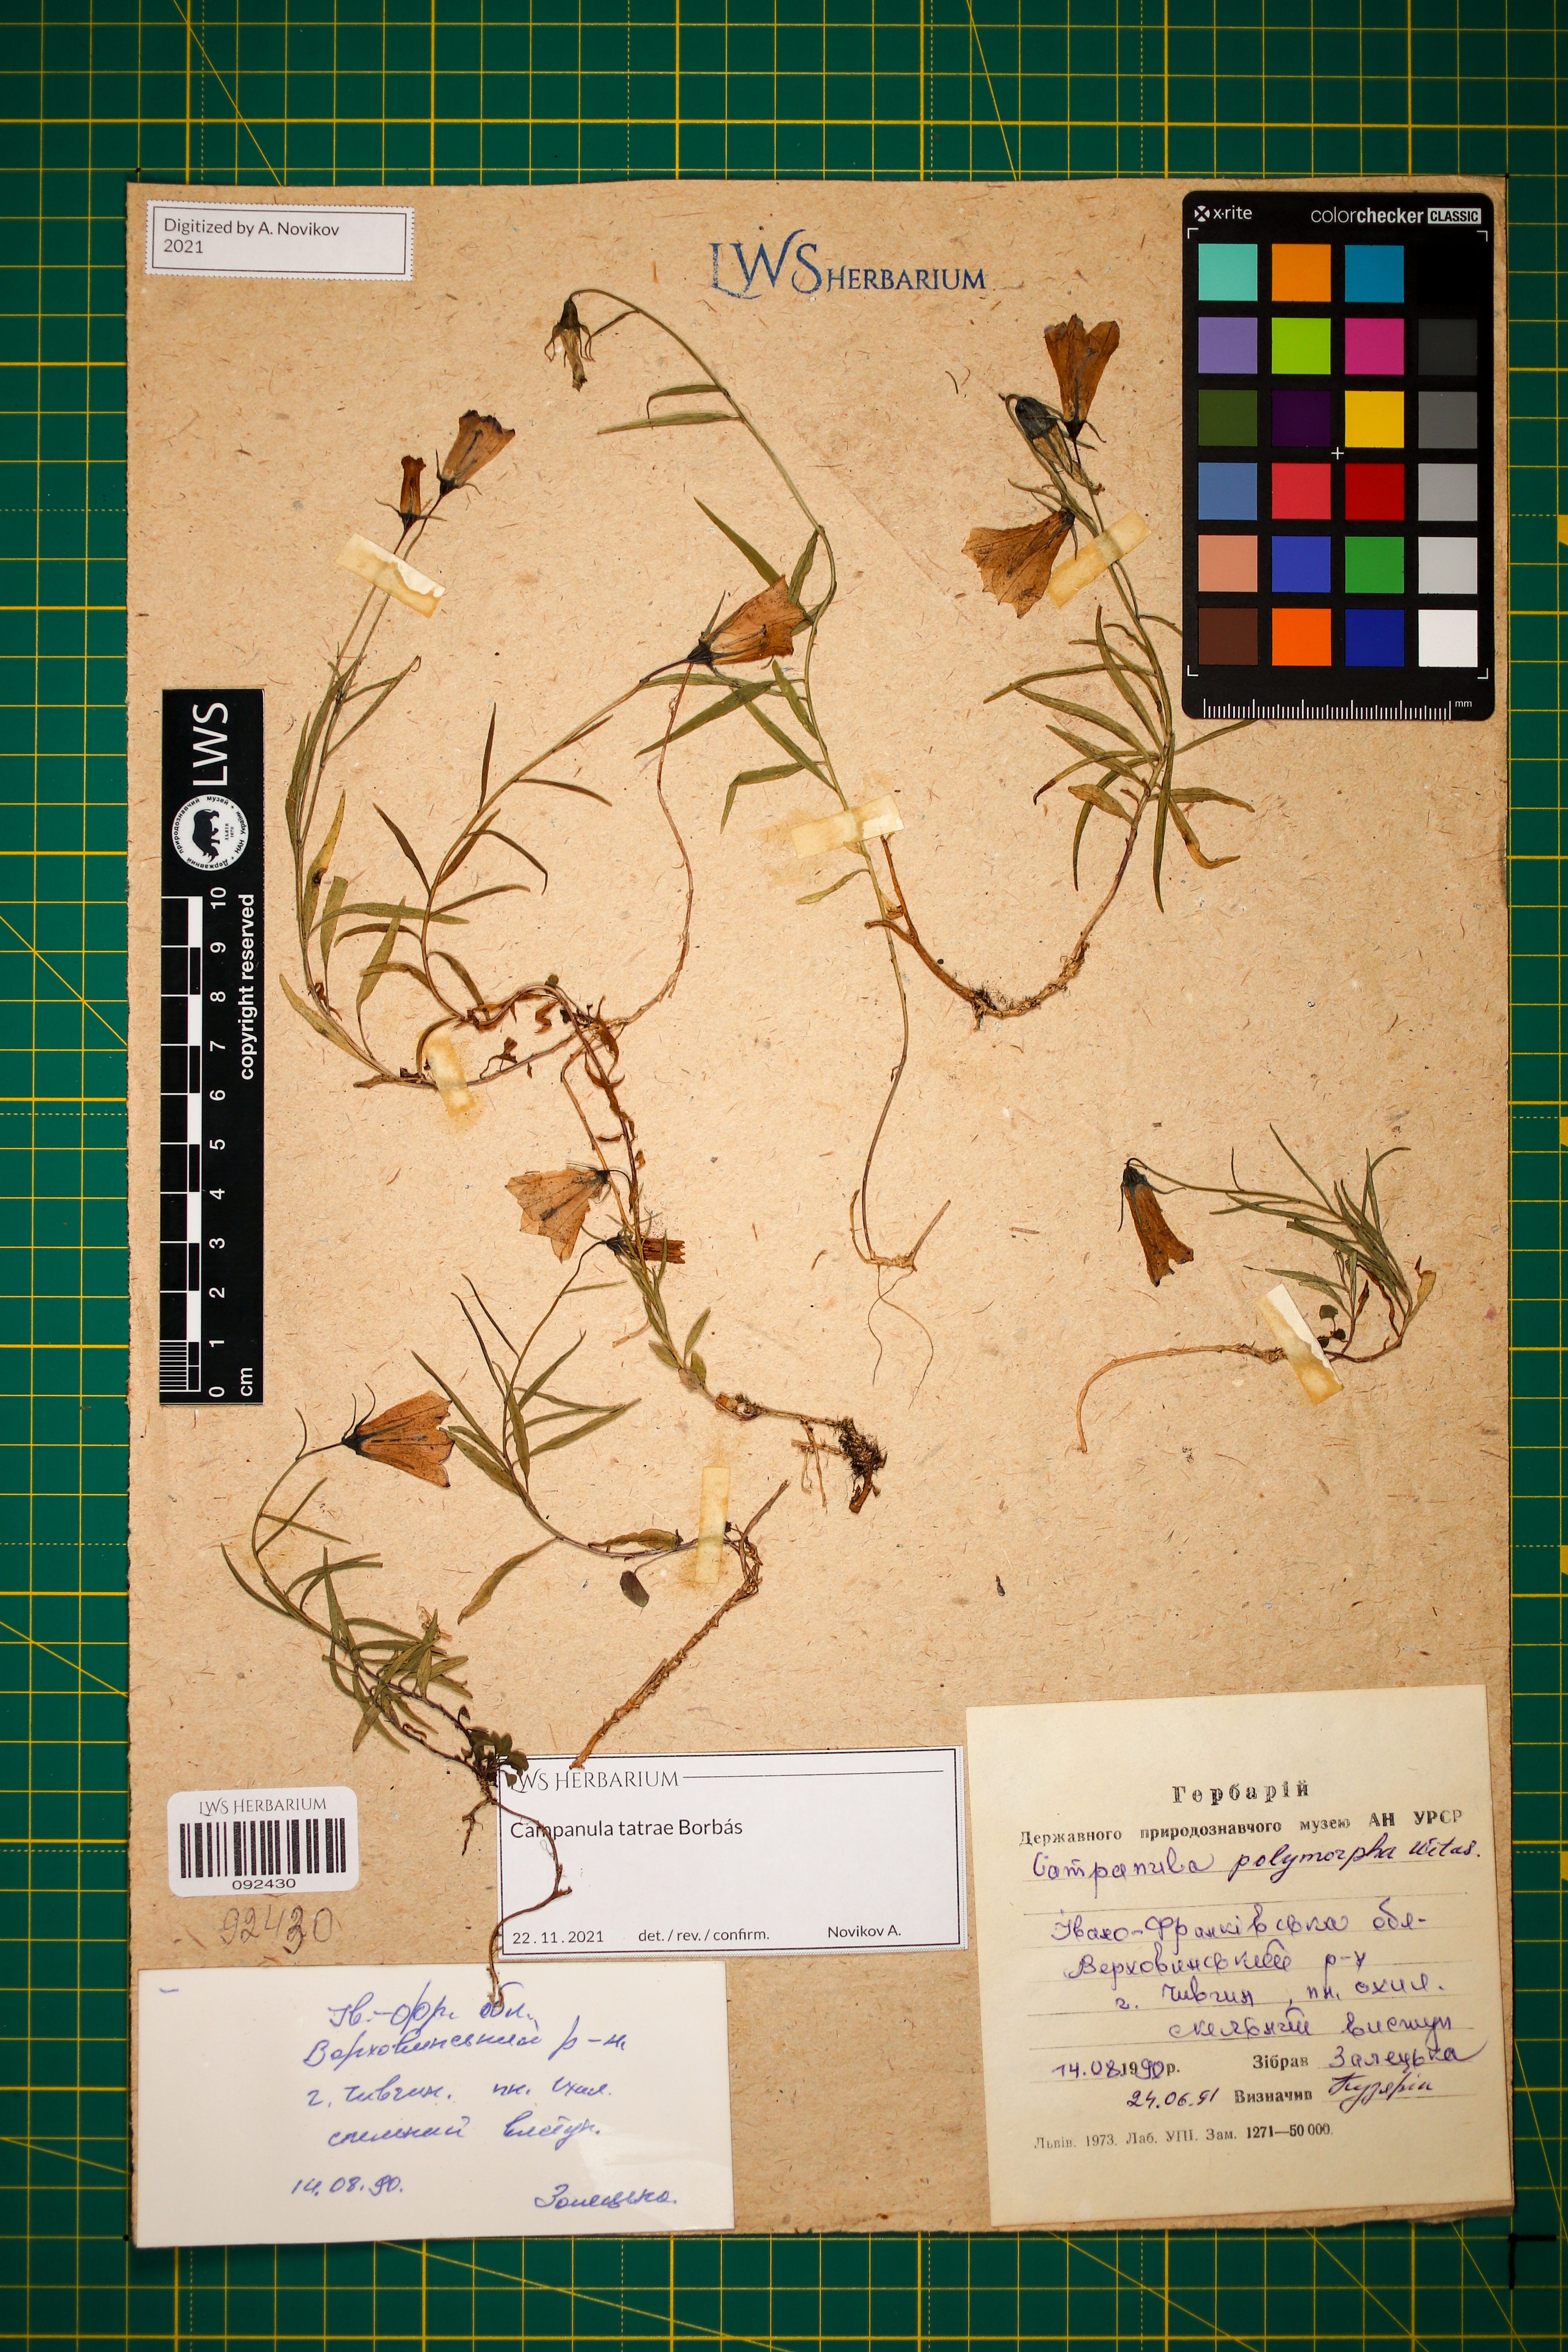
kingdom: Plantae
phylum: Tracheophyta
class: Magnoliopsida
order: Asterales
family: Campanulaceae
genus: Campanula
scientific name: Campanula tatrae
